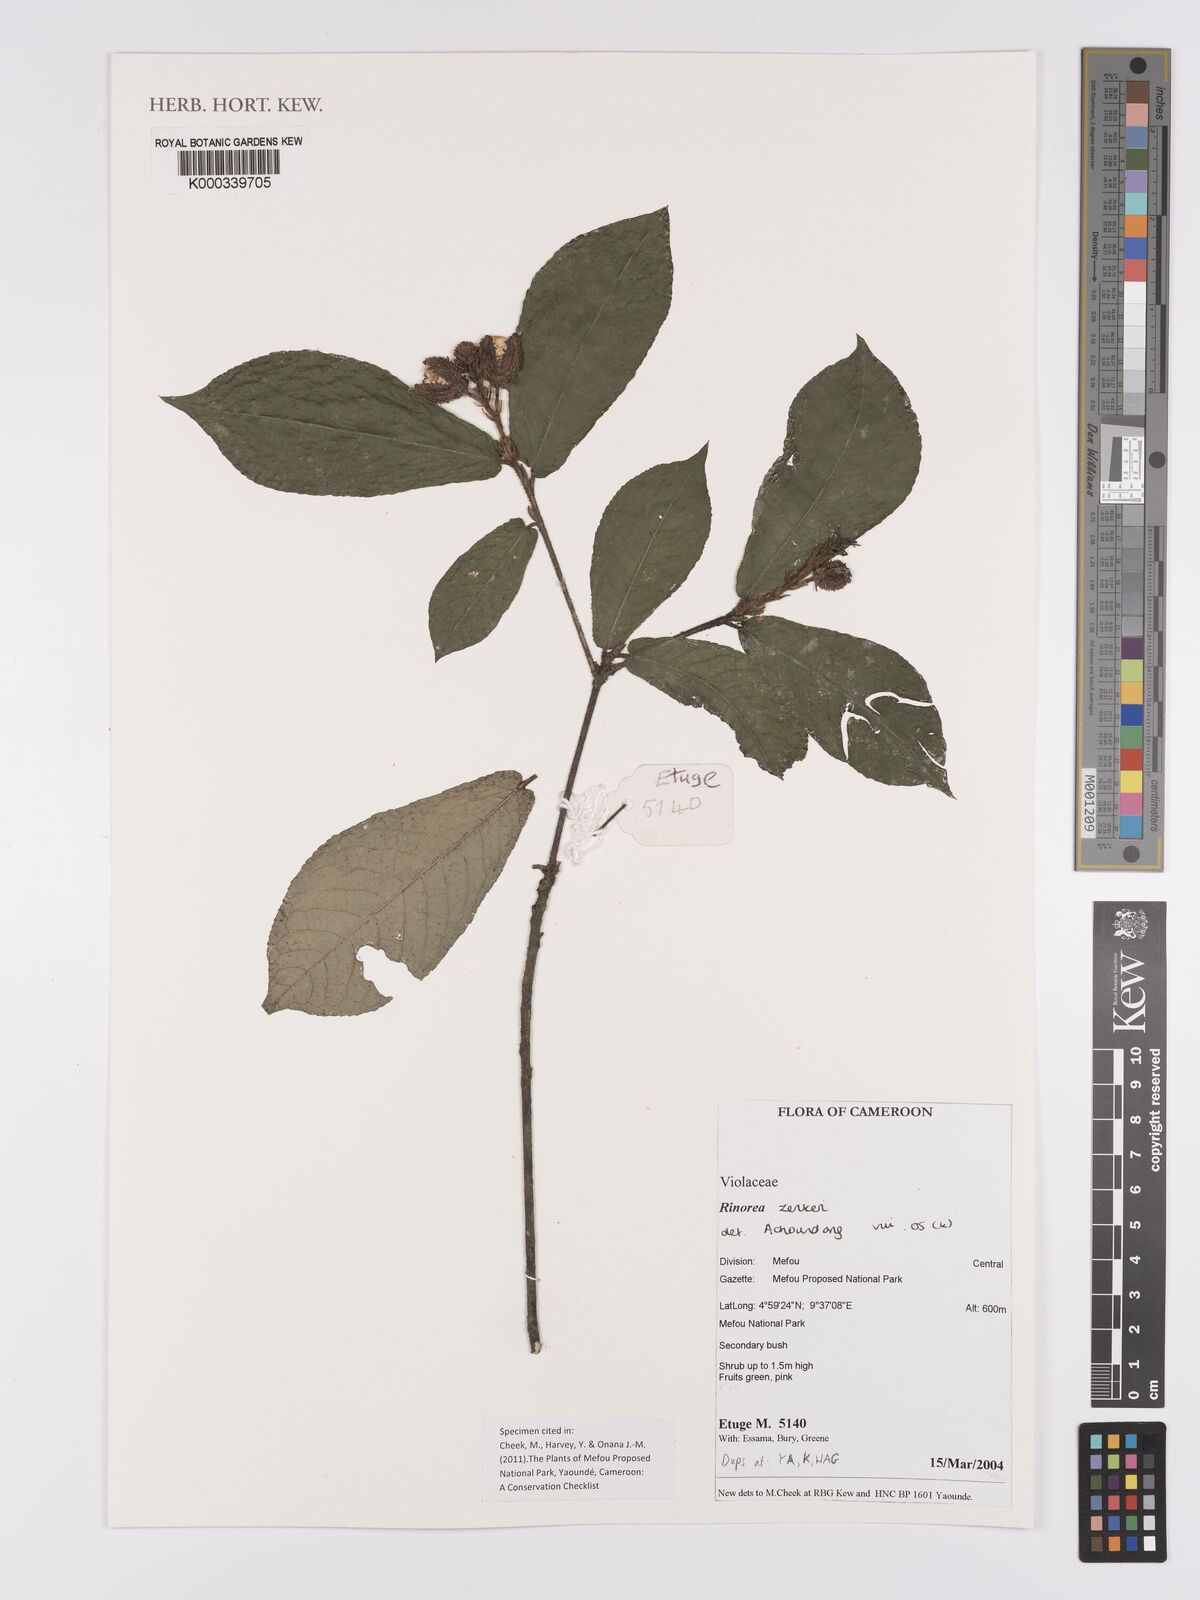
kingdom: Plantae
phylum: Tracheophyta
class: Magnoliopsida
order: Malpighiales
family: Violaceae
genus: Rinorea
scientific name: Rinorea zenkeri
